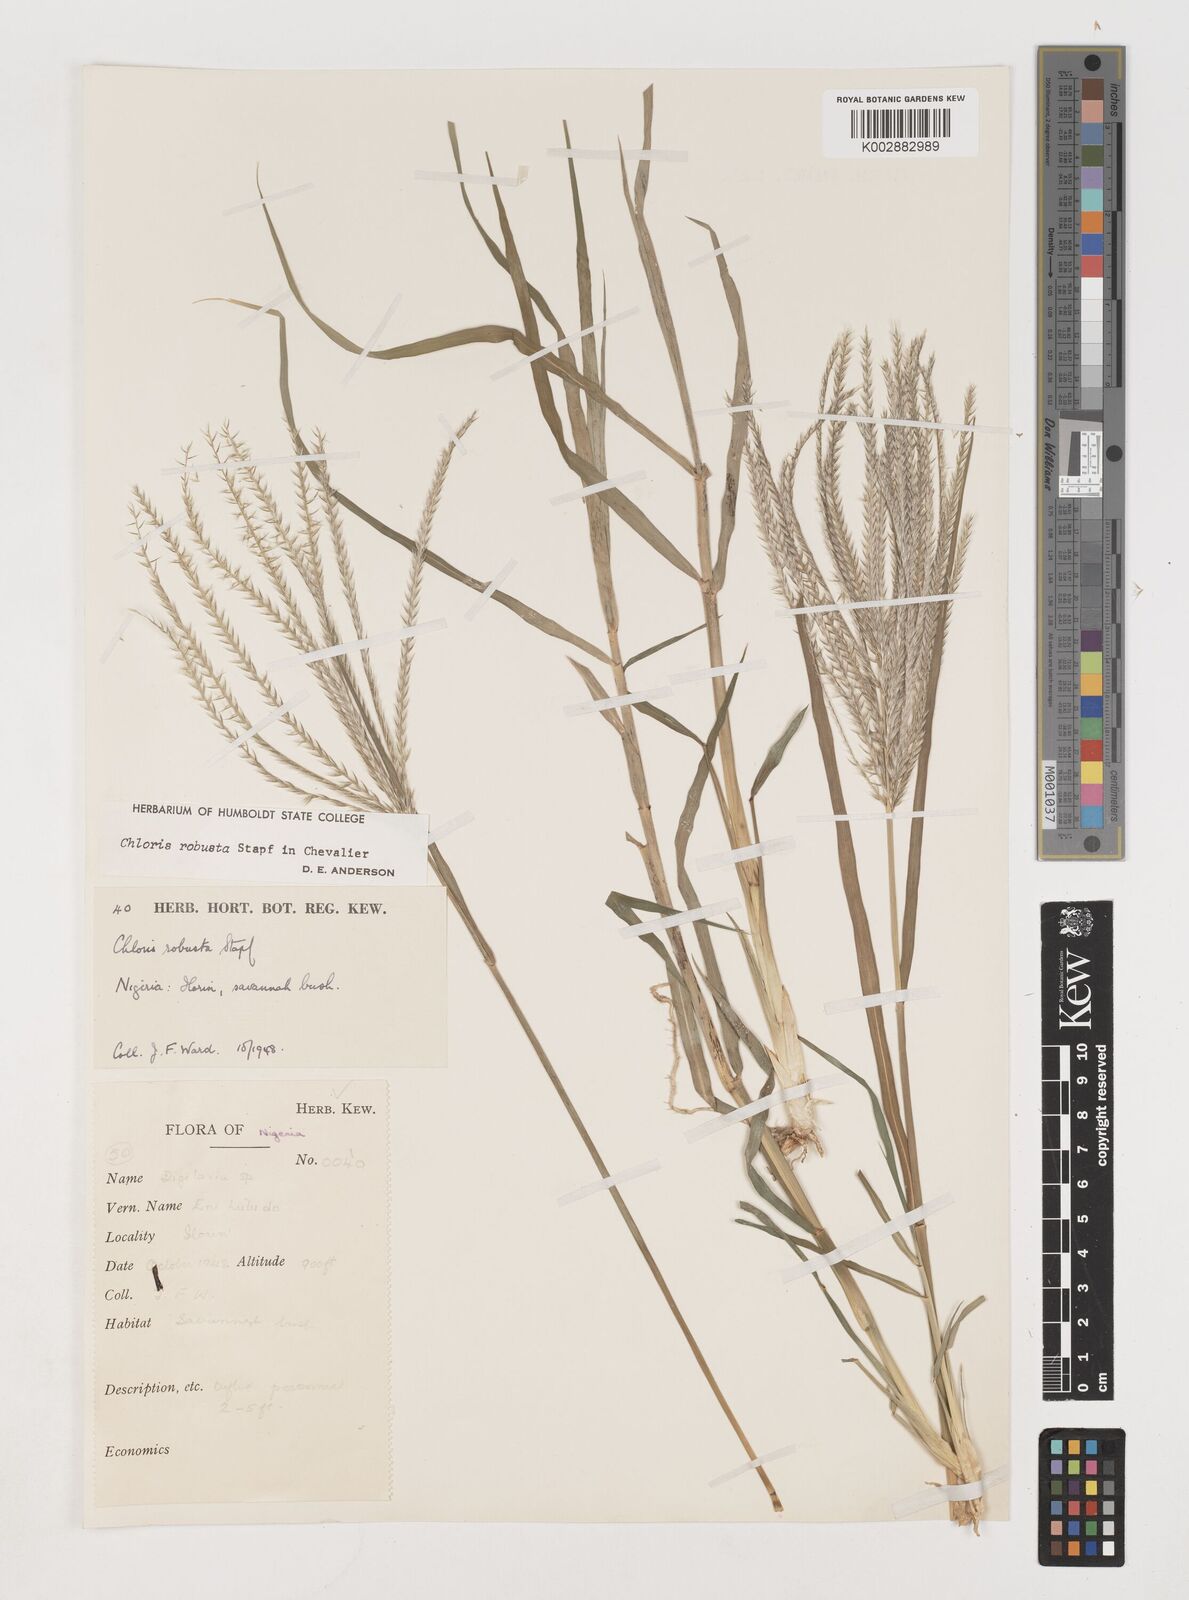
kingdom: Plantae
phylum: Tracheophyta
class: Liliopsida
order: Poales
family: Poaceae
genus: Chloris
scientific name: Chloris robusta
